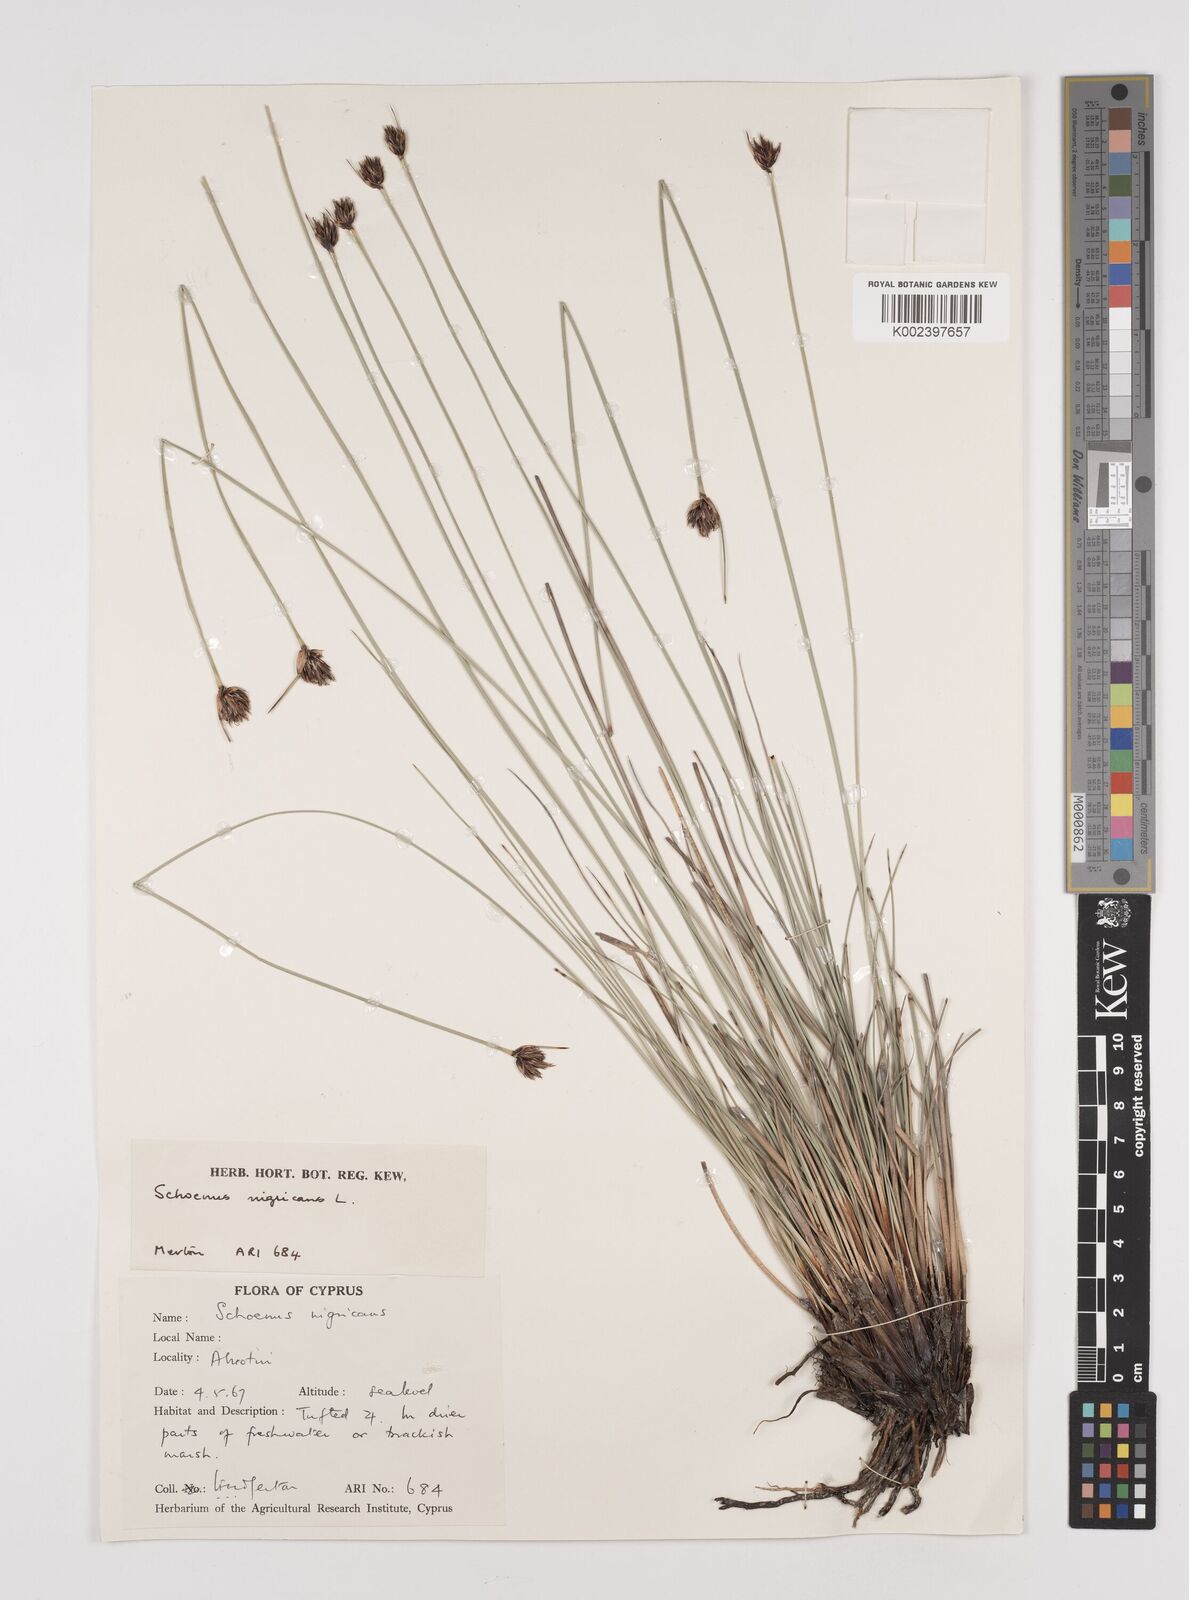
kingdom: Plantae
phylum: Tracheophyta
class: Liliopsida
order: Poales
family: Cyperaceae
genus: Schoenus
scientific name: Schoenus nigricans
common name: Black bog-rush
